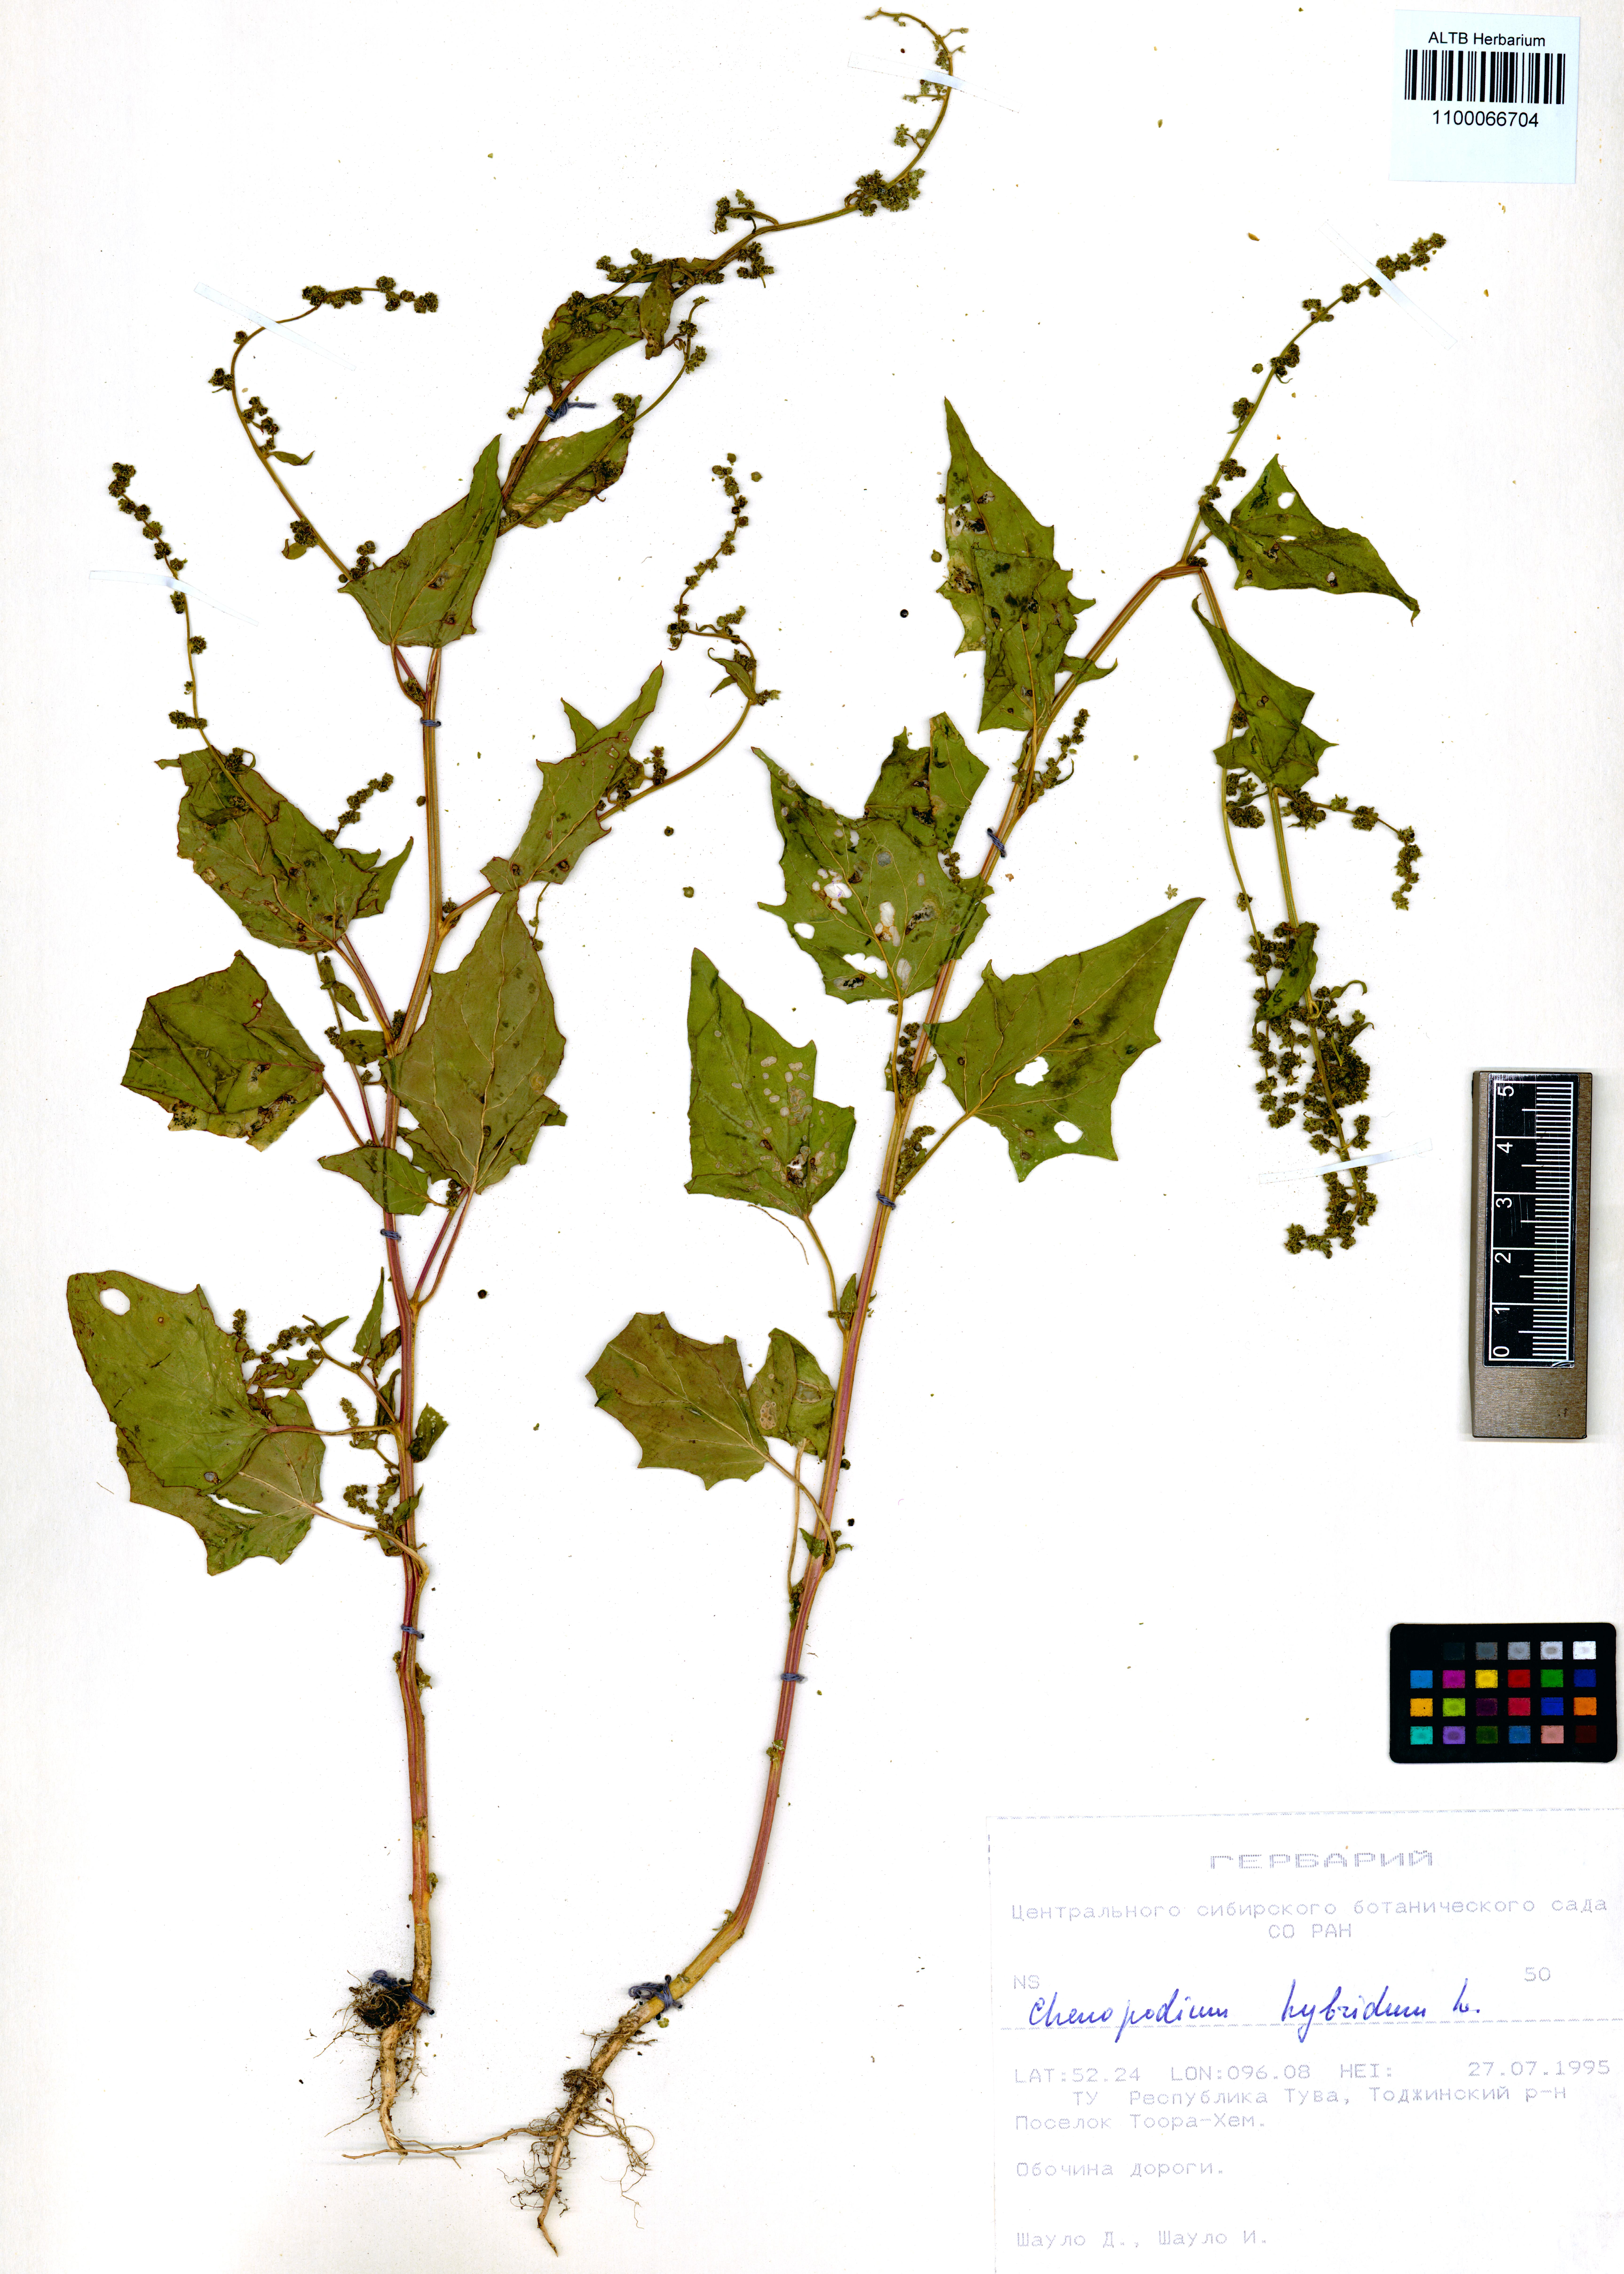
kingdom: Plantae
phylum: Tracheophyta
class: Magnoliopsida
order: Caryophyllales
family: Amaranthaceae
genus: Chenopodiastrum
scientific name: Chenopodiastrum hybridum
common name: Mapleleaf goosefoot
